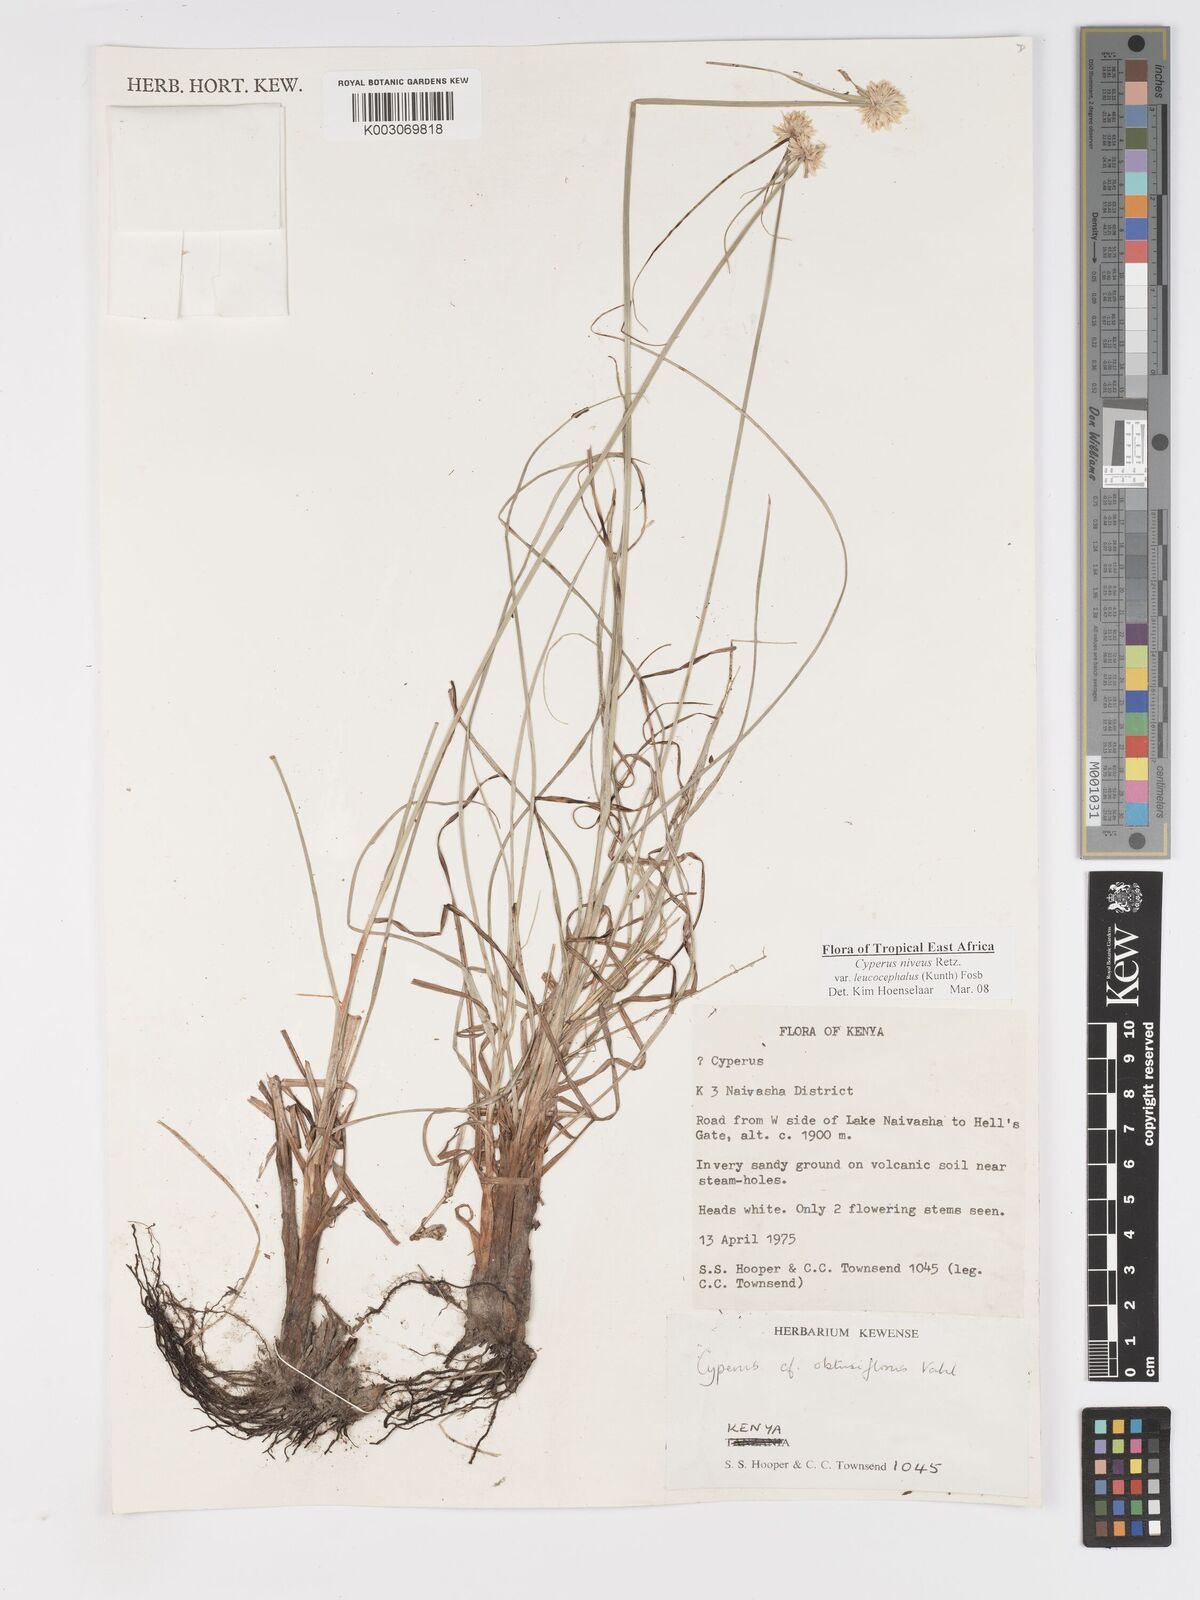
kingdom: Plantae
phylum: Tracheophyta
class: Liliopsida
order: Poales
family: Cyperaceae
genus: Cyperus
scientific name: Cyperus niveus
